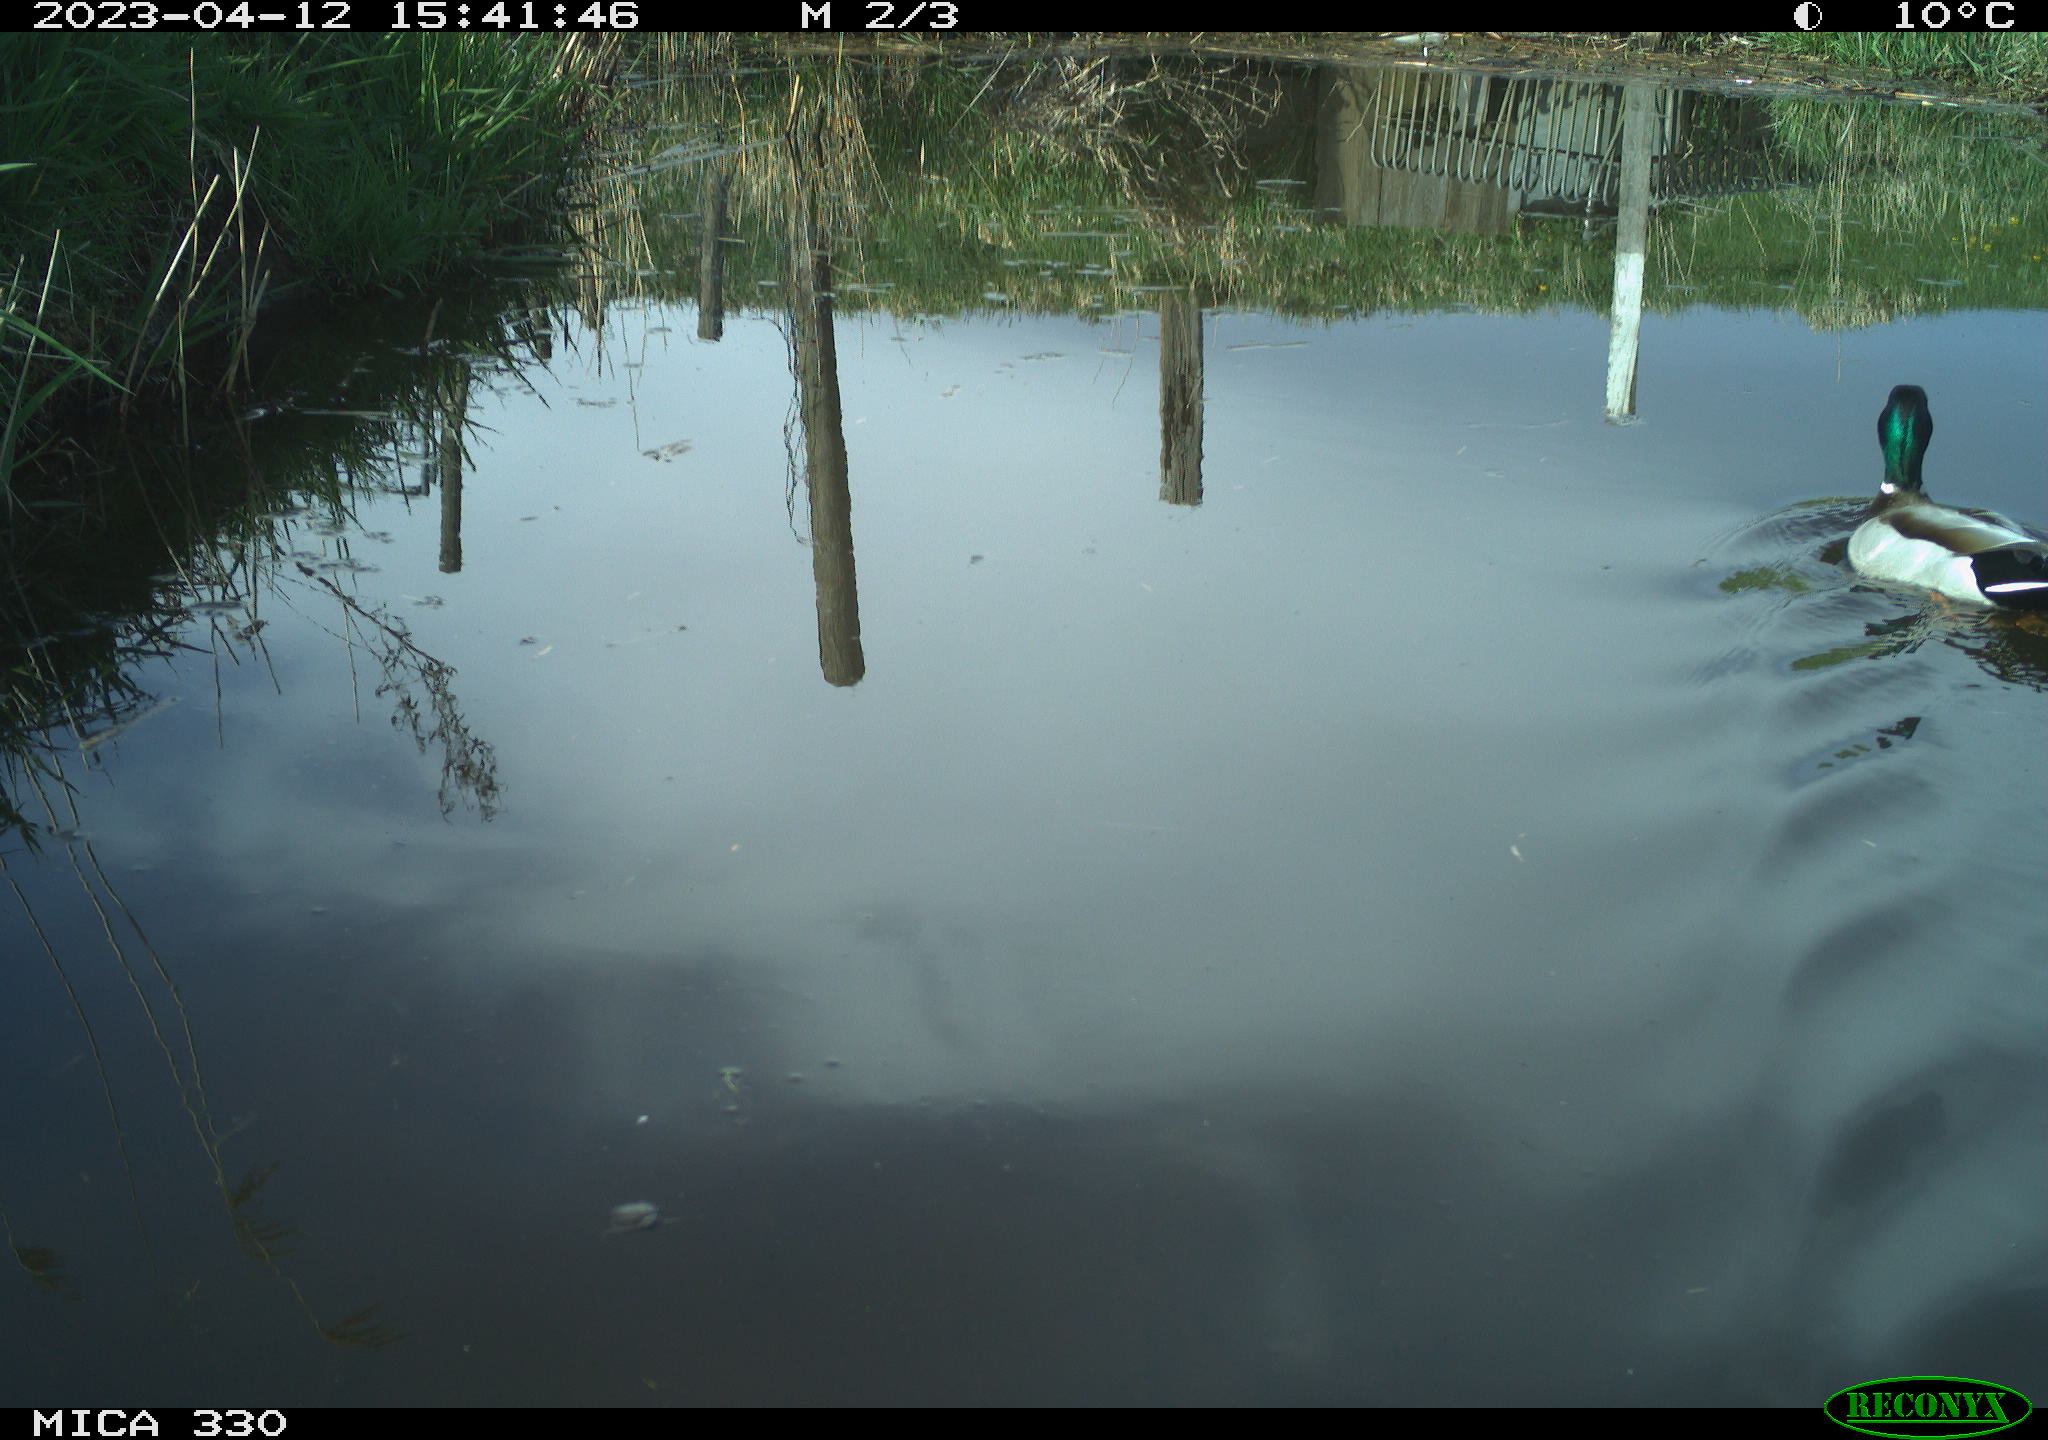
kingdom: Animalia
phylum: Chordata
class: Aves
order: Anseriformes
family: Anatidae
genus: Anas
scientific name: Anas
